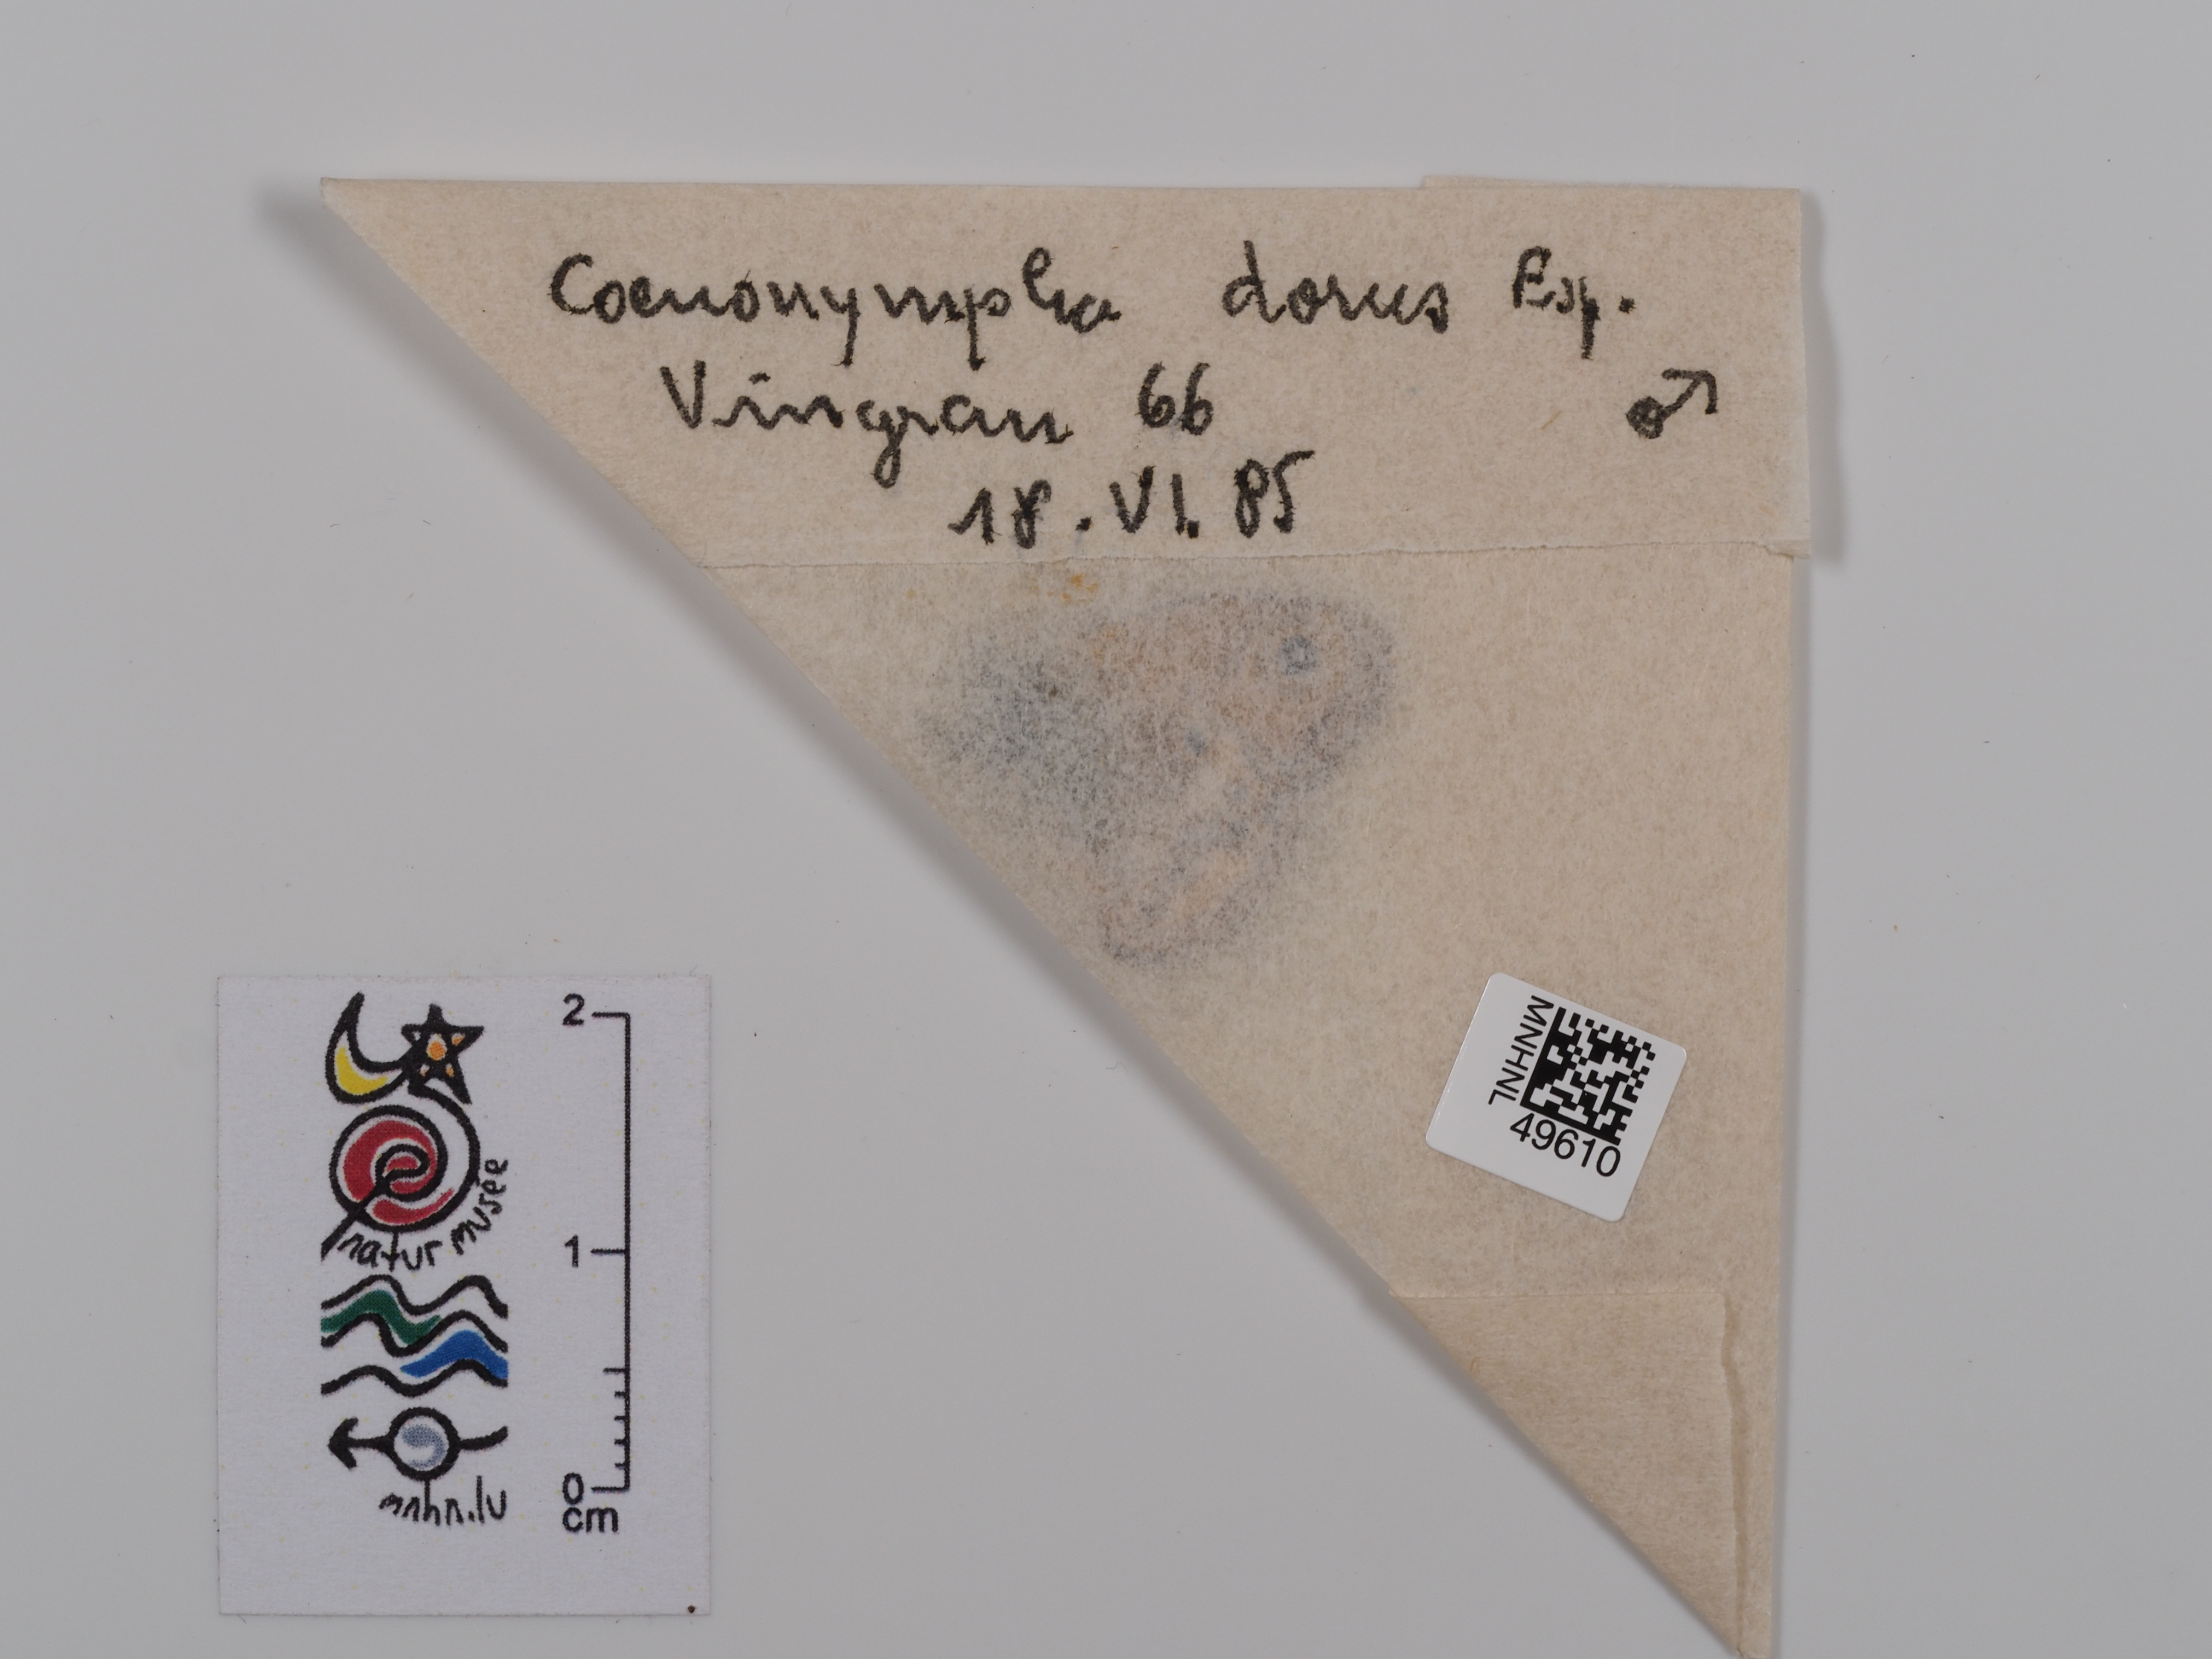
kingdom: Animalia
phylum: Arthropoda
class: Insecta
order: Lepidoptera
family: Nymphalidae
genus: Coenonympha
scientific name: Coenonympha dorus
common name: Dusky heath
